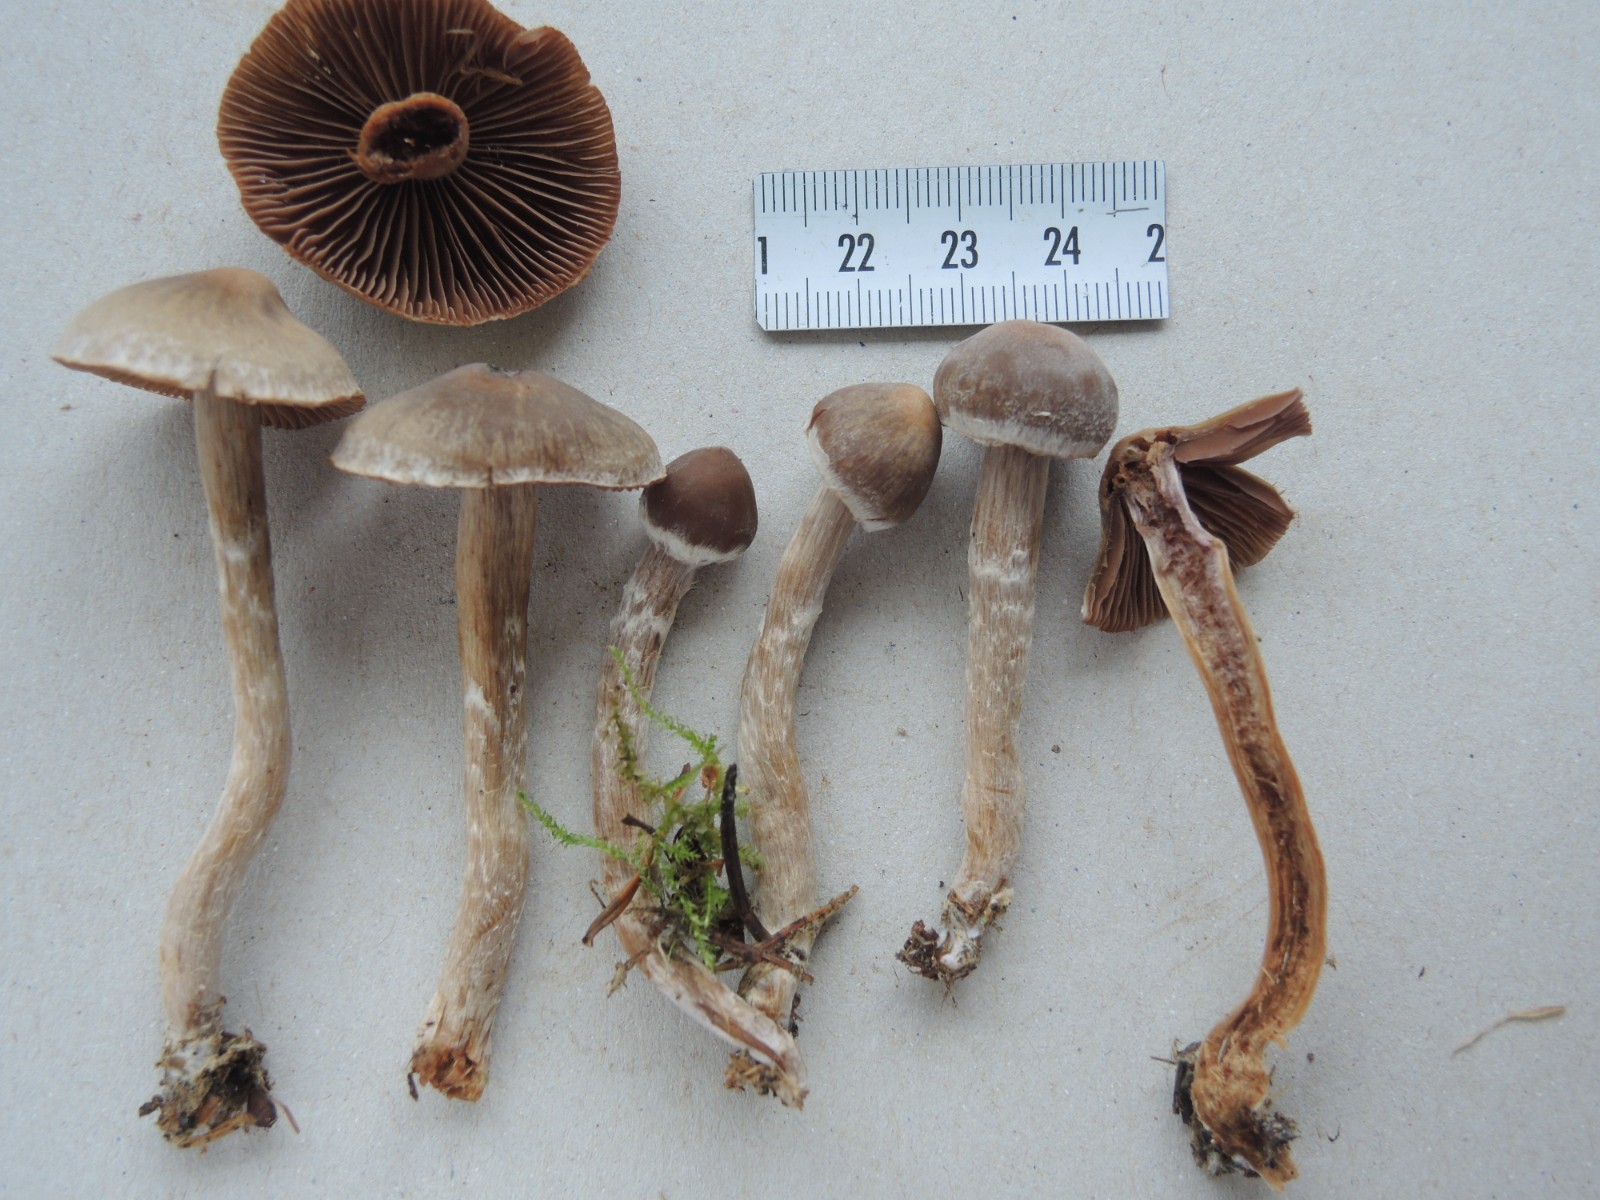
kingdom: Fungi
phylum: Basidiomycota
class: Agaricomycetes
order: Agaricales
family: Cortinariaceae
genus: Cortinarius
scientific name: Cortinarius
